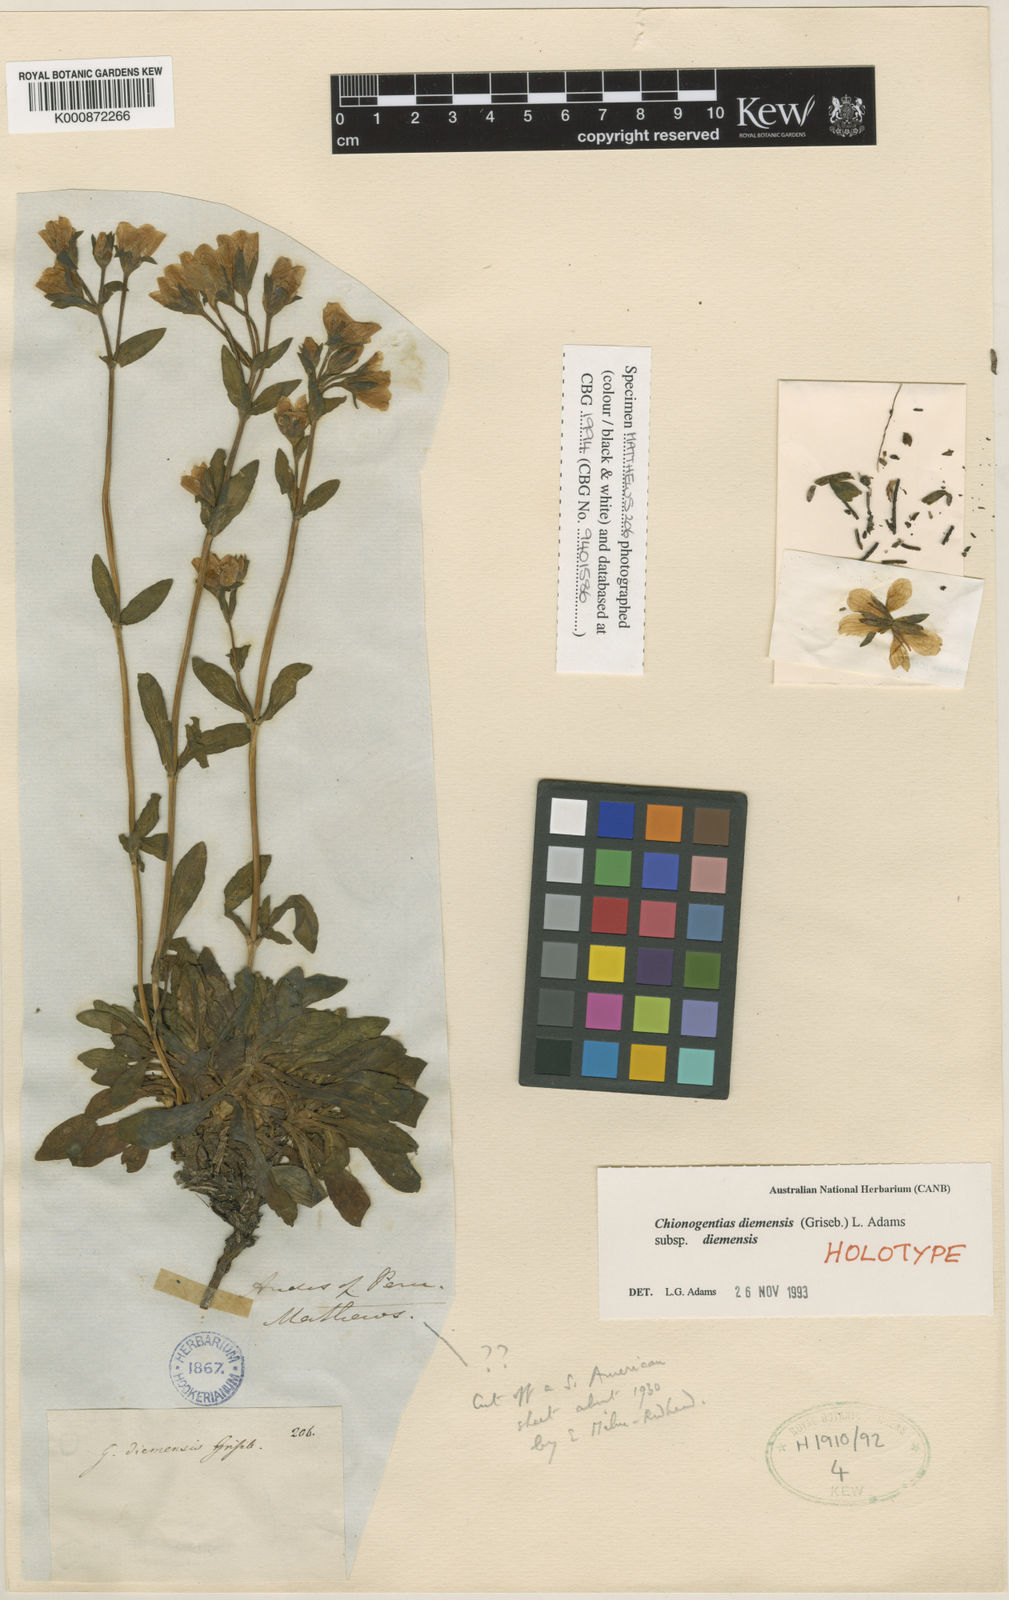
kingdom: Plantae
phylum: Tracheophyta
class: Magnoliopsida
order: Gentianales
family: Gentianaceae
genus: Gentianella
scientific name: Gentianella diemensis
